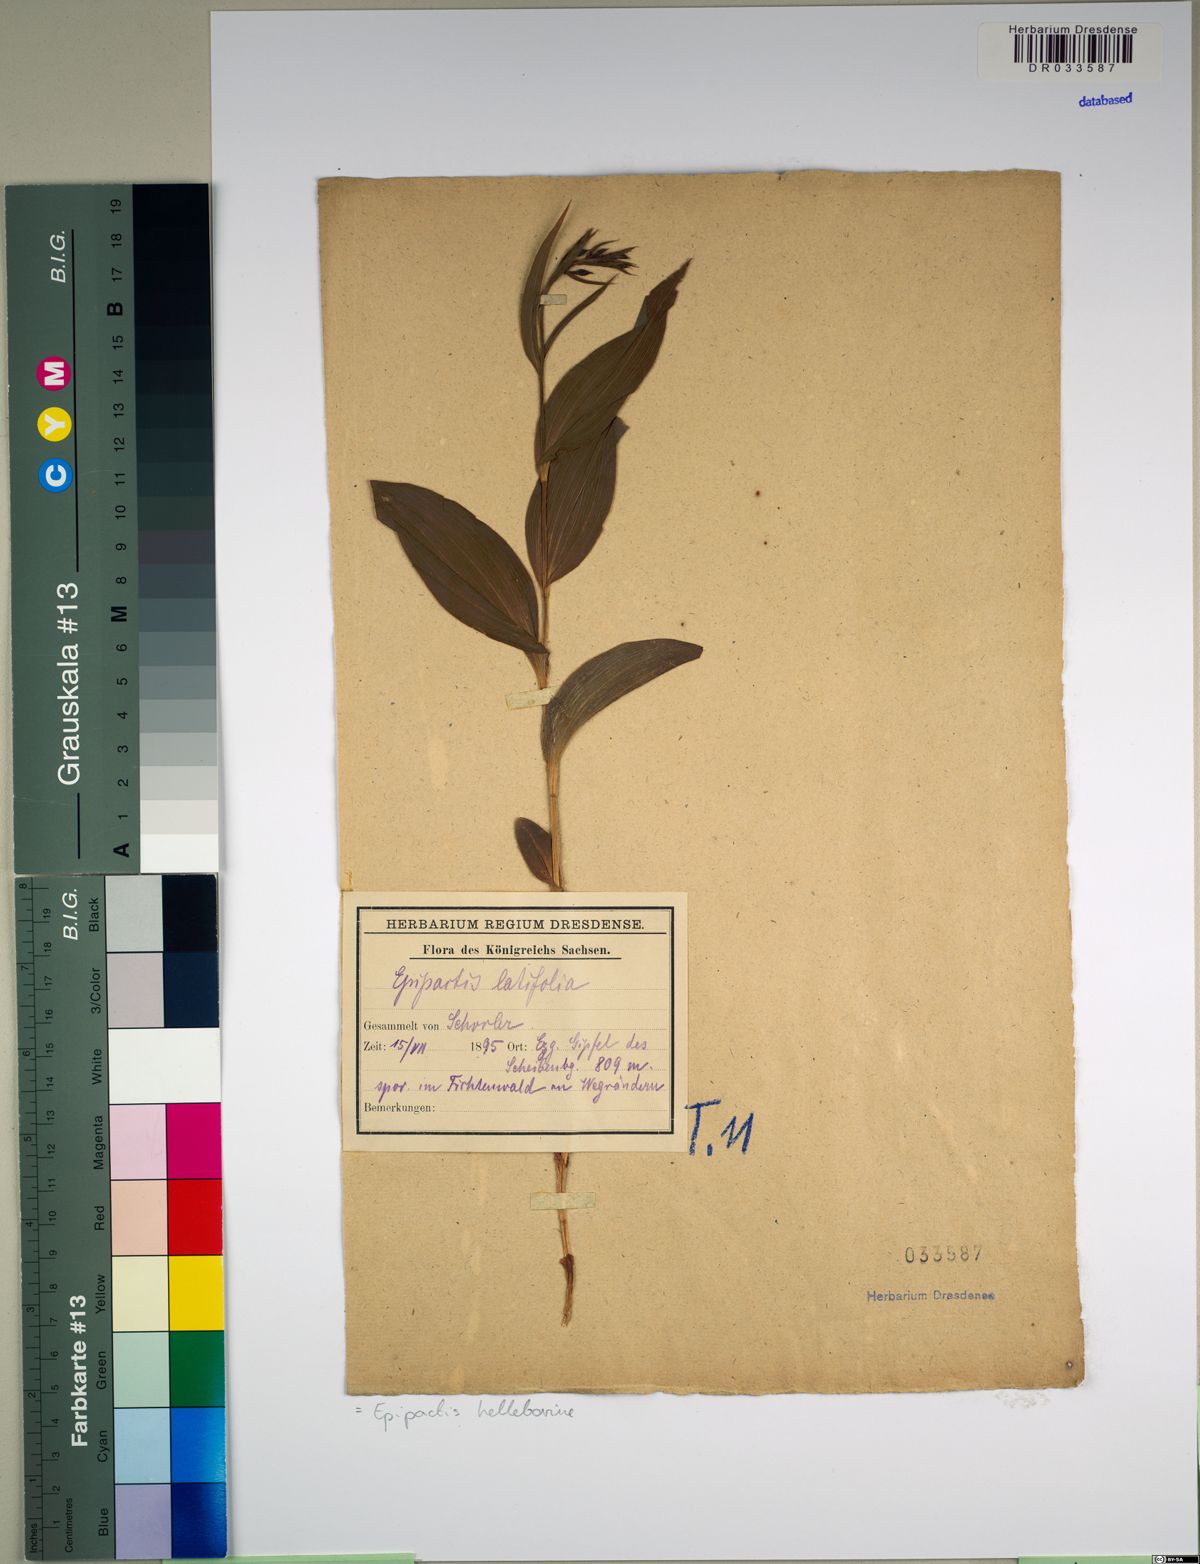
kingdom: Plantae
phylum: Tracheophyta
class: Liliopsida
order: Asparagales
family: Orchidaceae
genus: Epipactis
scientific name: Epipactis helleborine
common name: Broad-leaved helleborine
